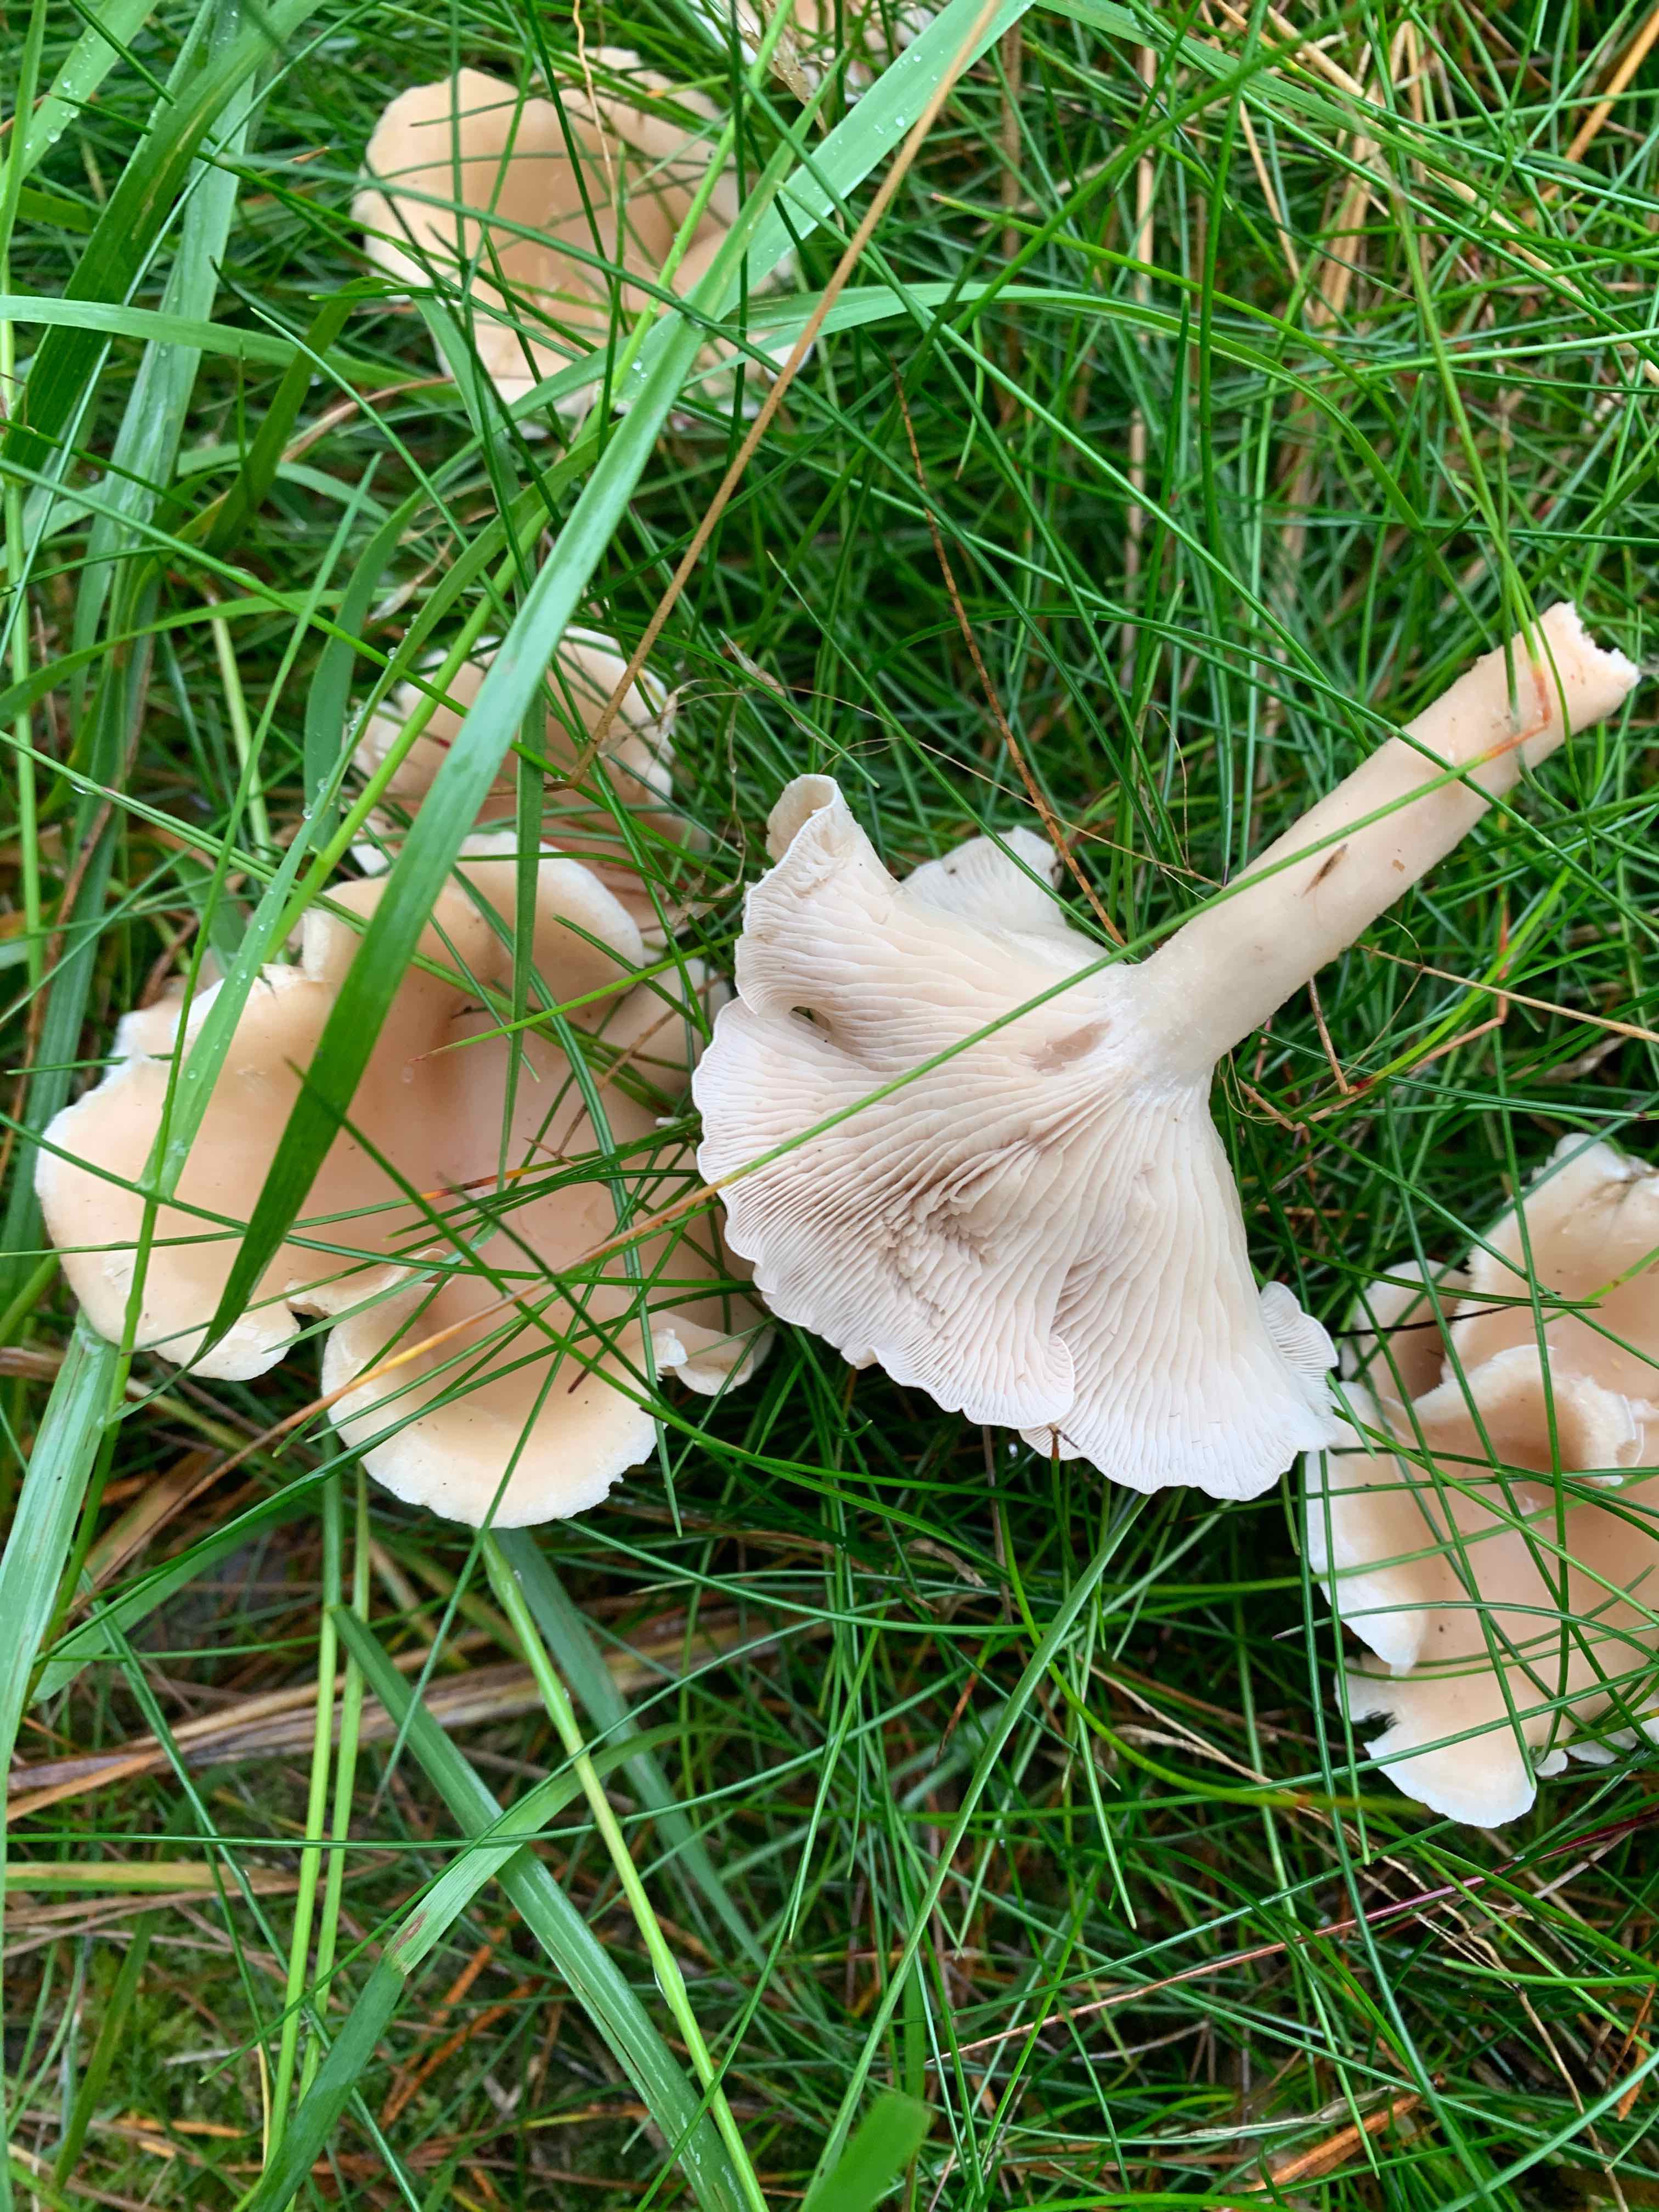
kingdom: Fungi
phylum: Basidiomycota
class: Agaricomycetes
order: Agaricales
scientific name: Agaricales
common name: champignonordenen
